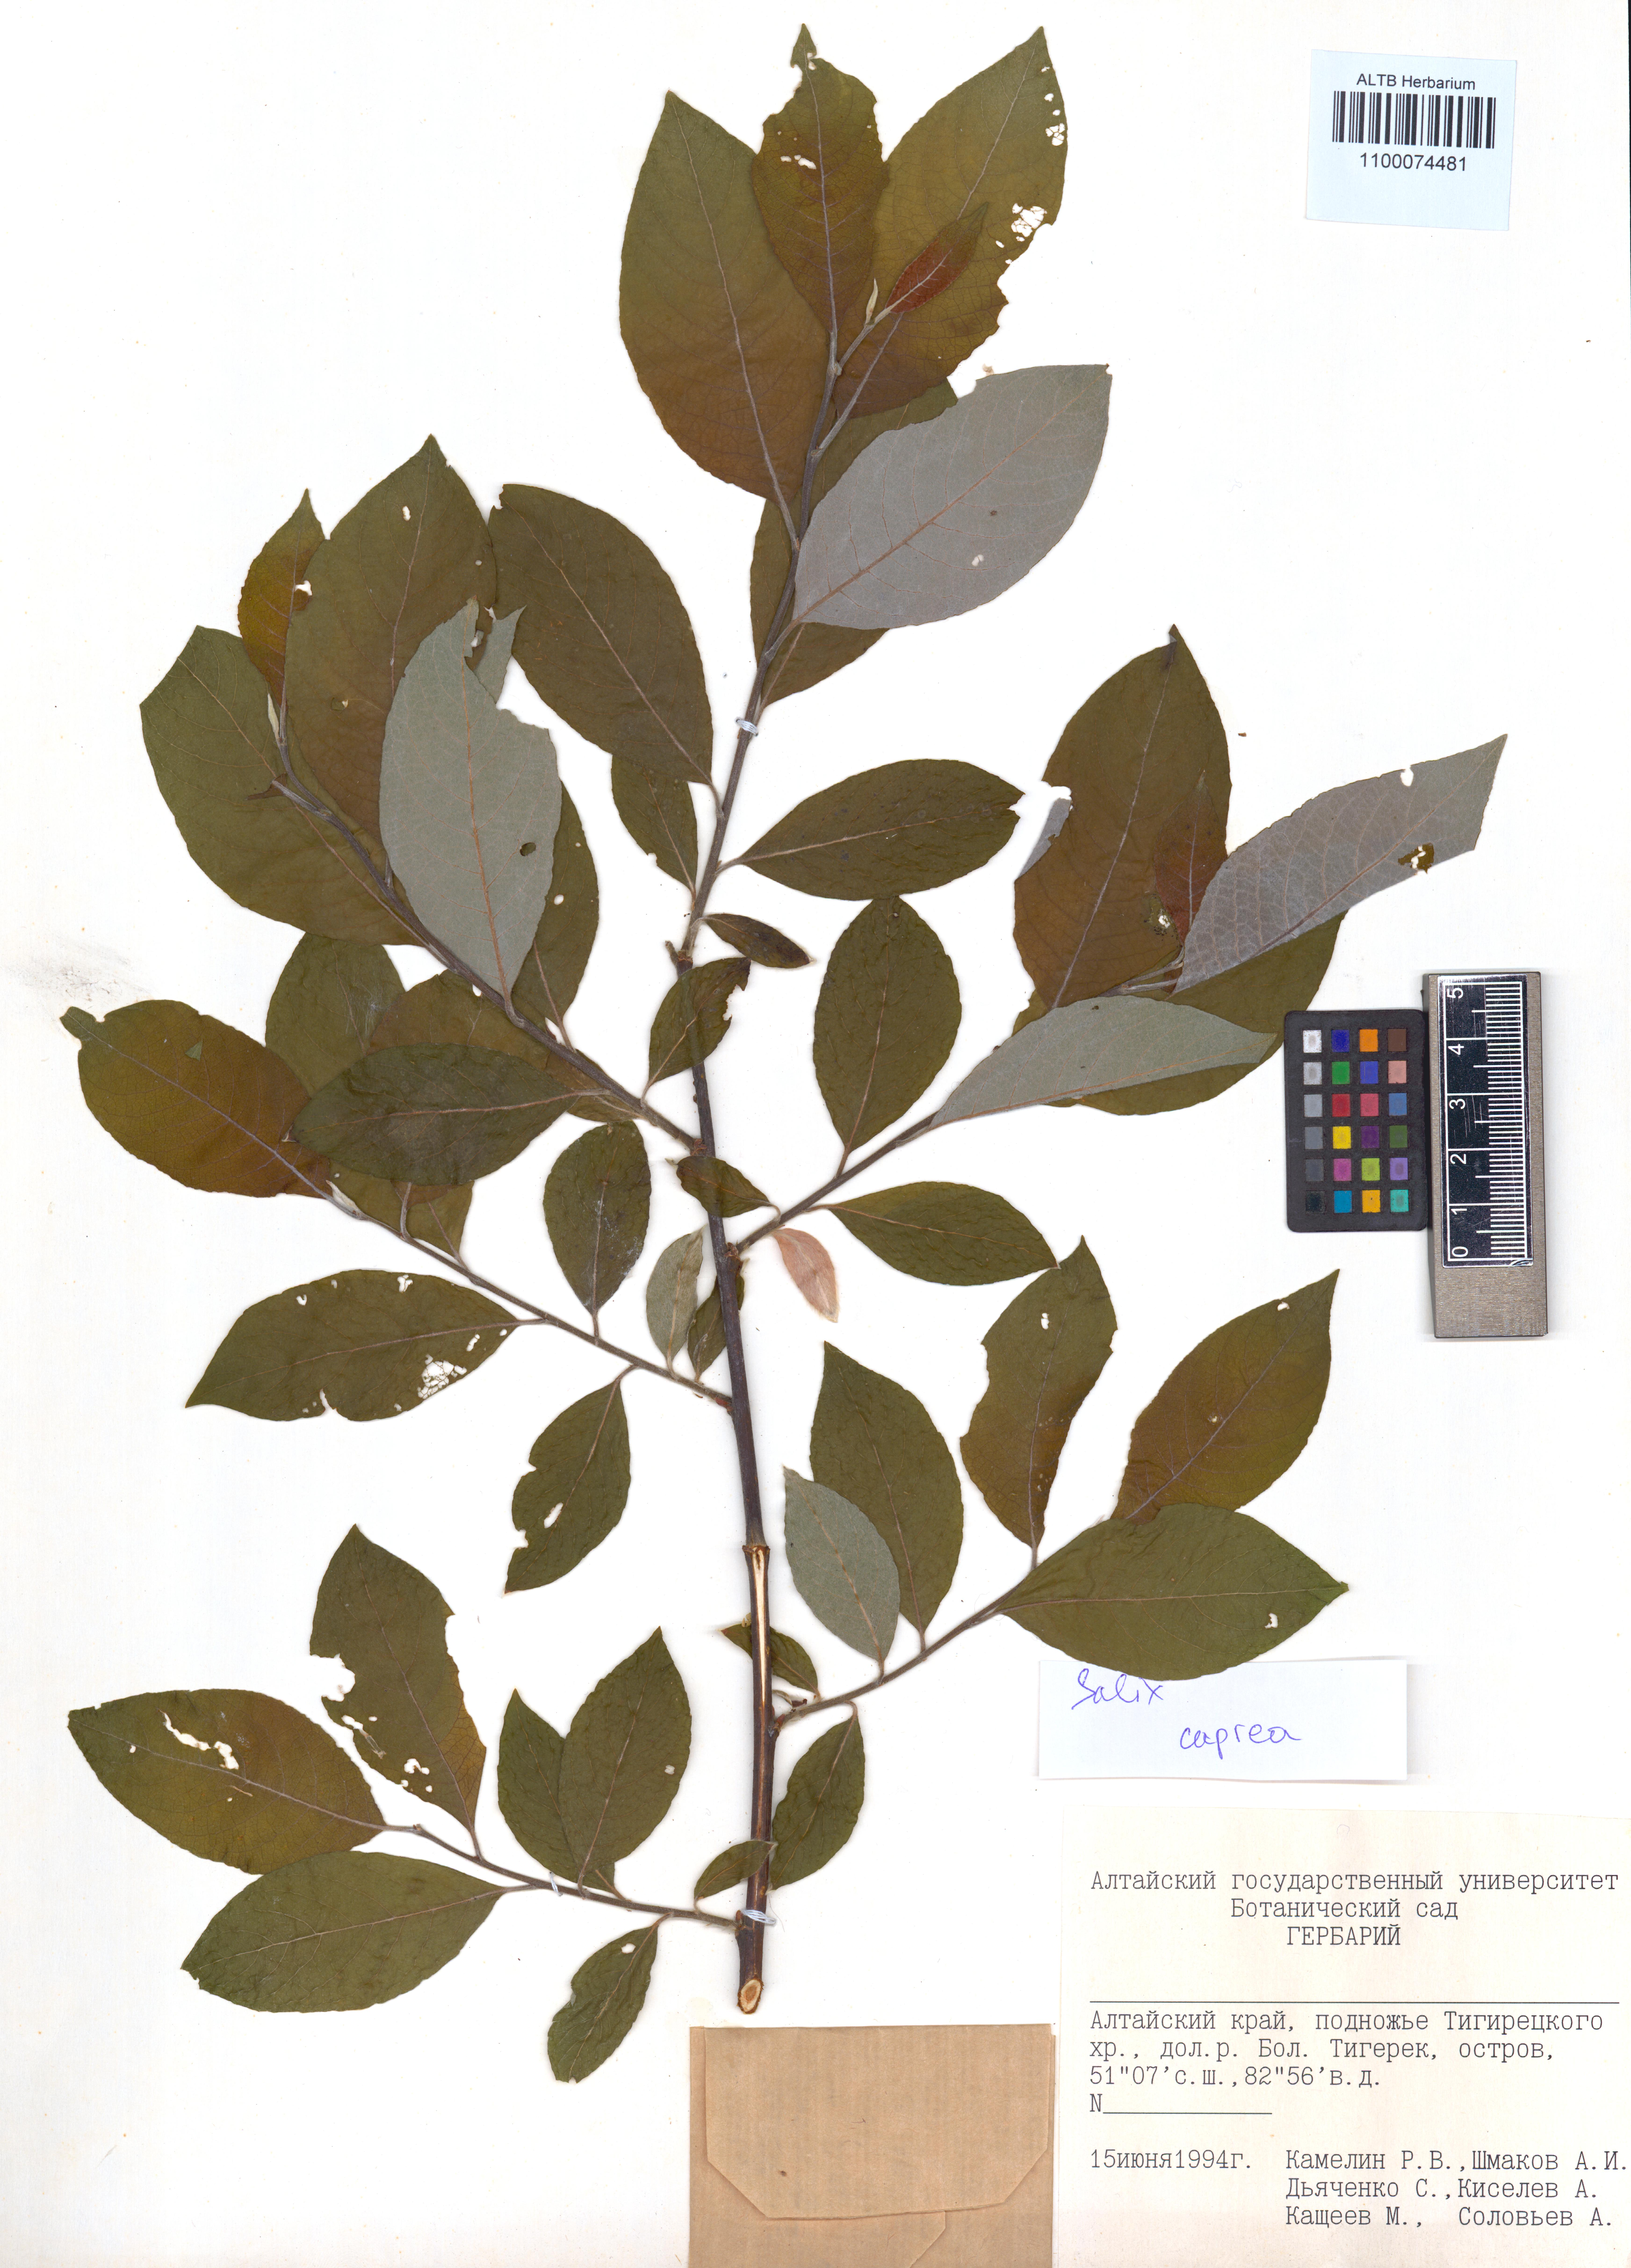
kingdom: Plantae
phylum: Tracheophyta
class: Magnoliopsida
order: Malpighiales
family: Salicaceae
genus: Salix
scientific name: Salix caprea
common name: Goat willow
